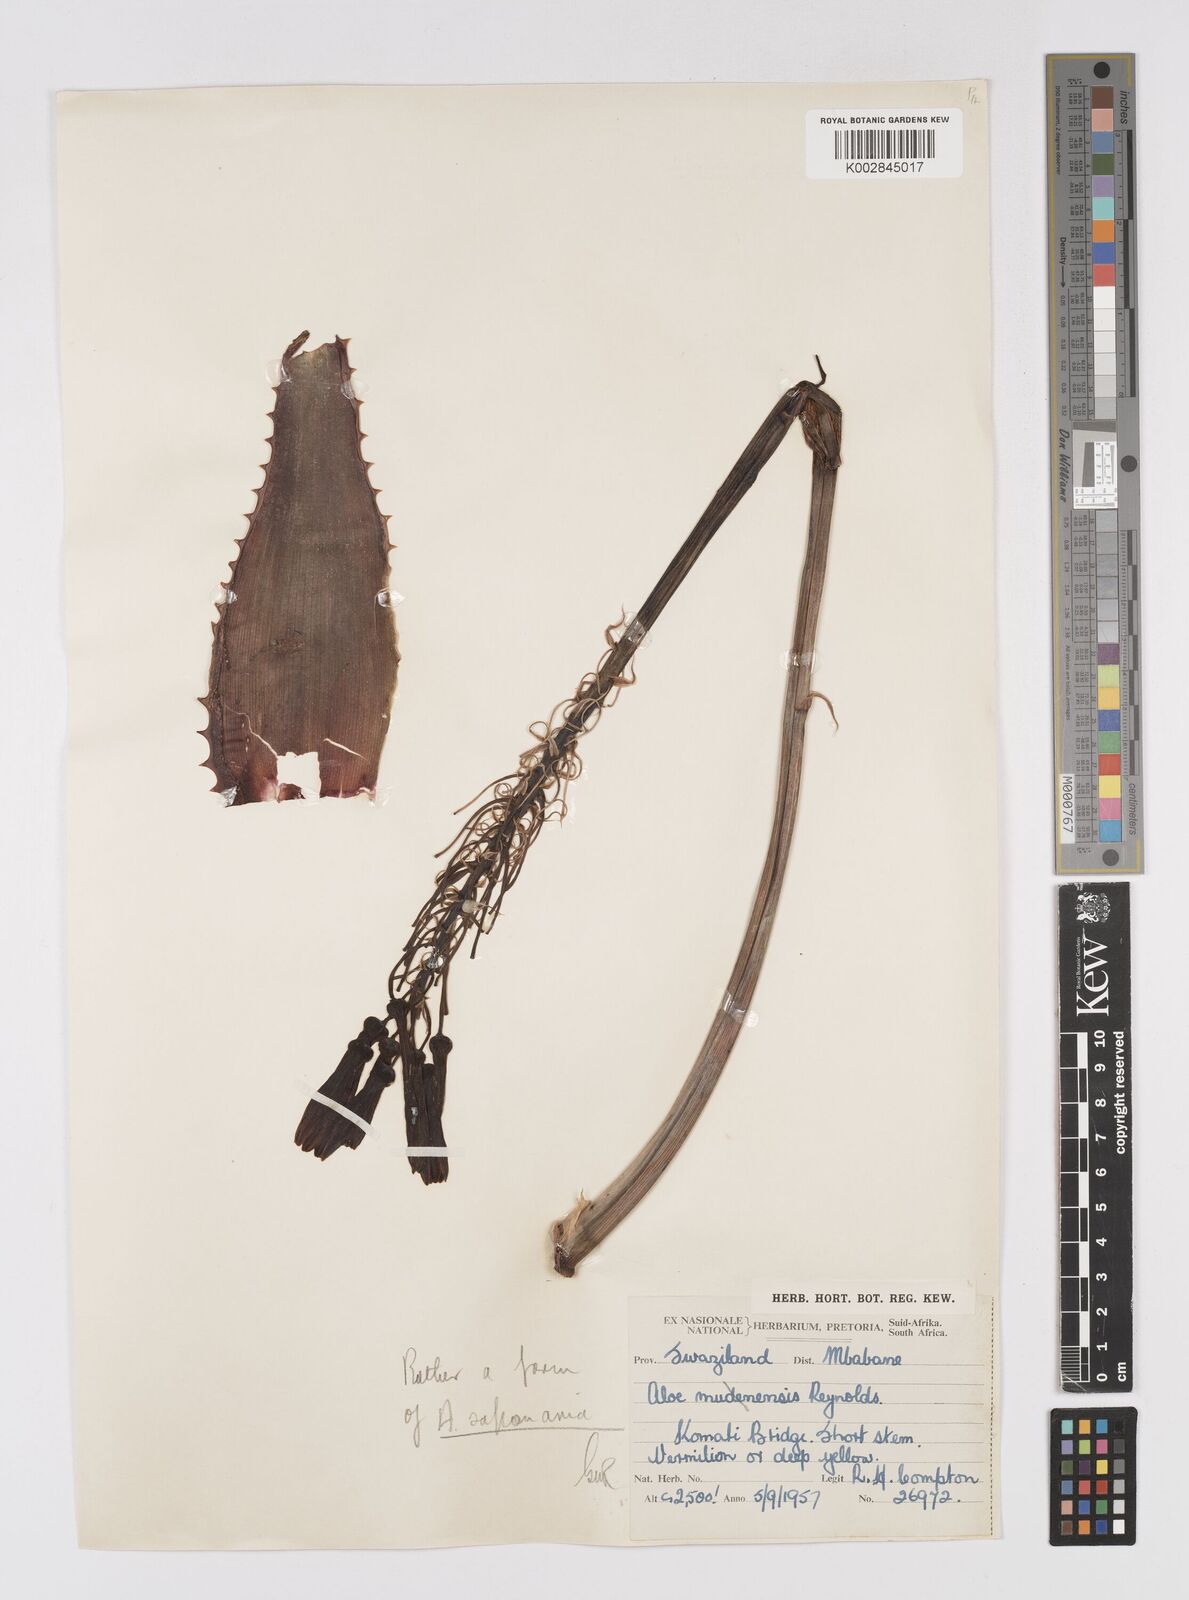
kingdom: Plantae
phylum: Tracheophyta
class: Liliopsida
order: Asparagales
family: Asphodelaceae
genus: Aloe
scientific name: Aloe microstigma
